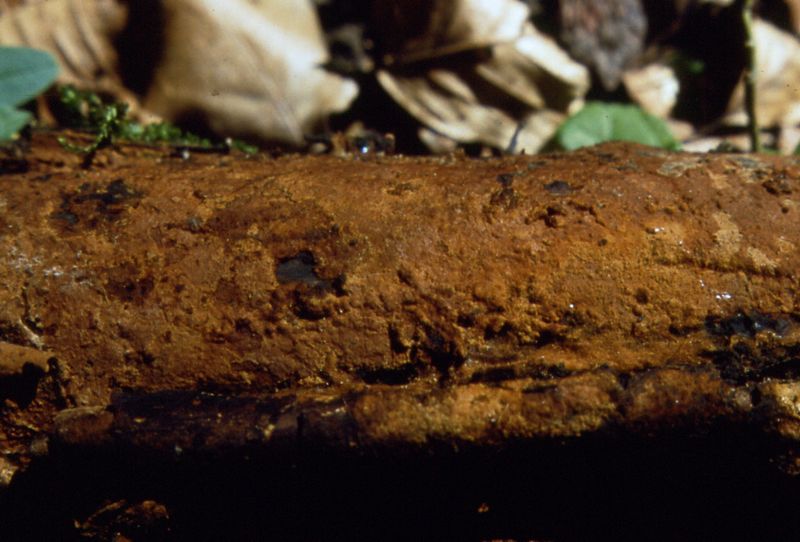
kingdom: Fungi
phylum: Basidiomycota
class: Agaricomycetes
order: Hymenochaetales
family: Hymenochaetaceae
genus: Hymenochaete
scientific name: Hymenochaete cinnamomea
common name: gyldenbrun ruslædersvamp
